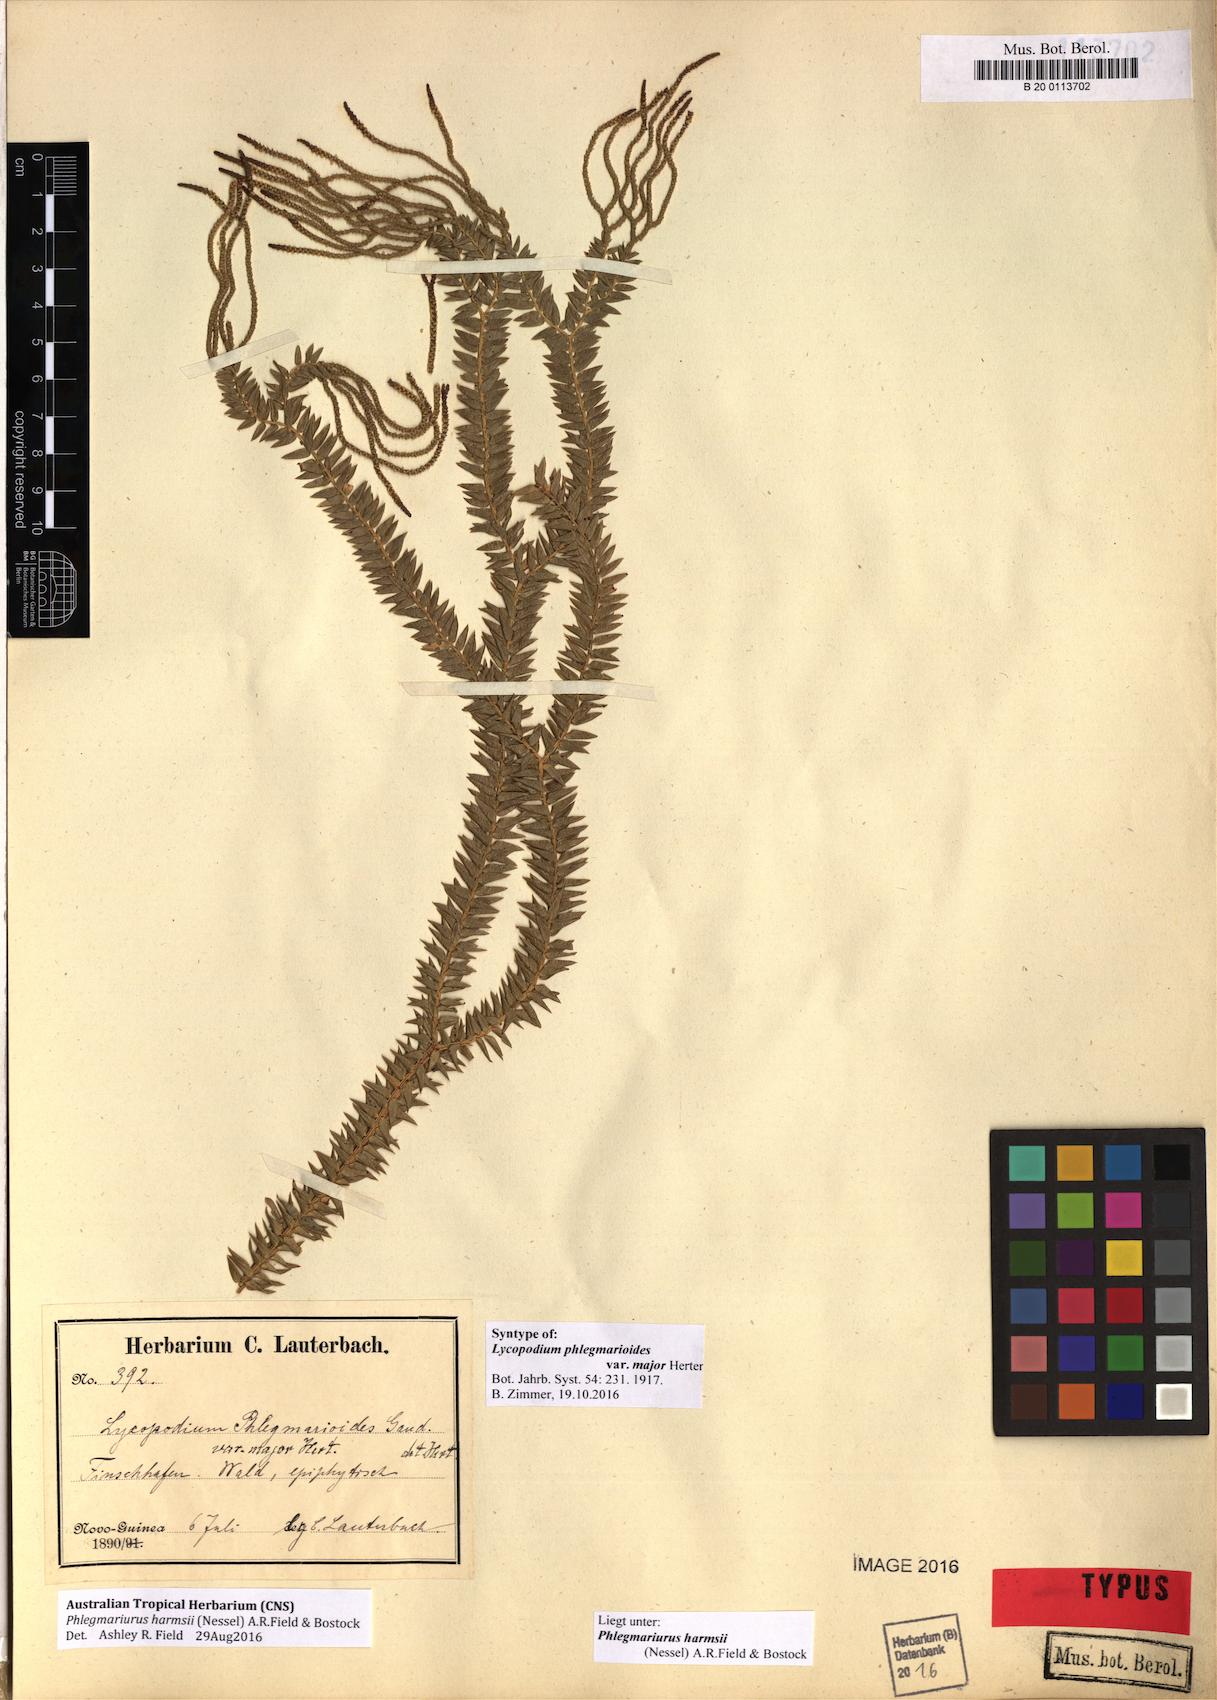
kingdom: Plantae
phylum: Tracheophyta
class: Lycopodiopsida
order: Lycopodiales
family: Lycopodiaceae
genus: Phlegmariurus
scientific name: Phlegmariurus harmsii
